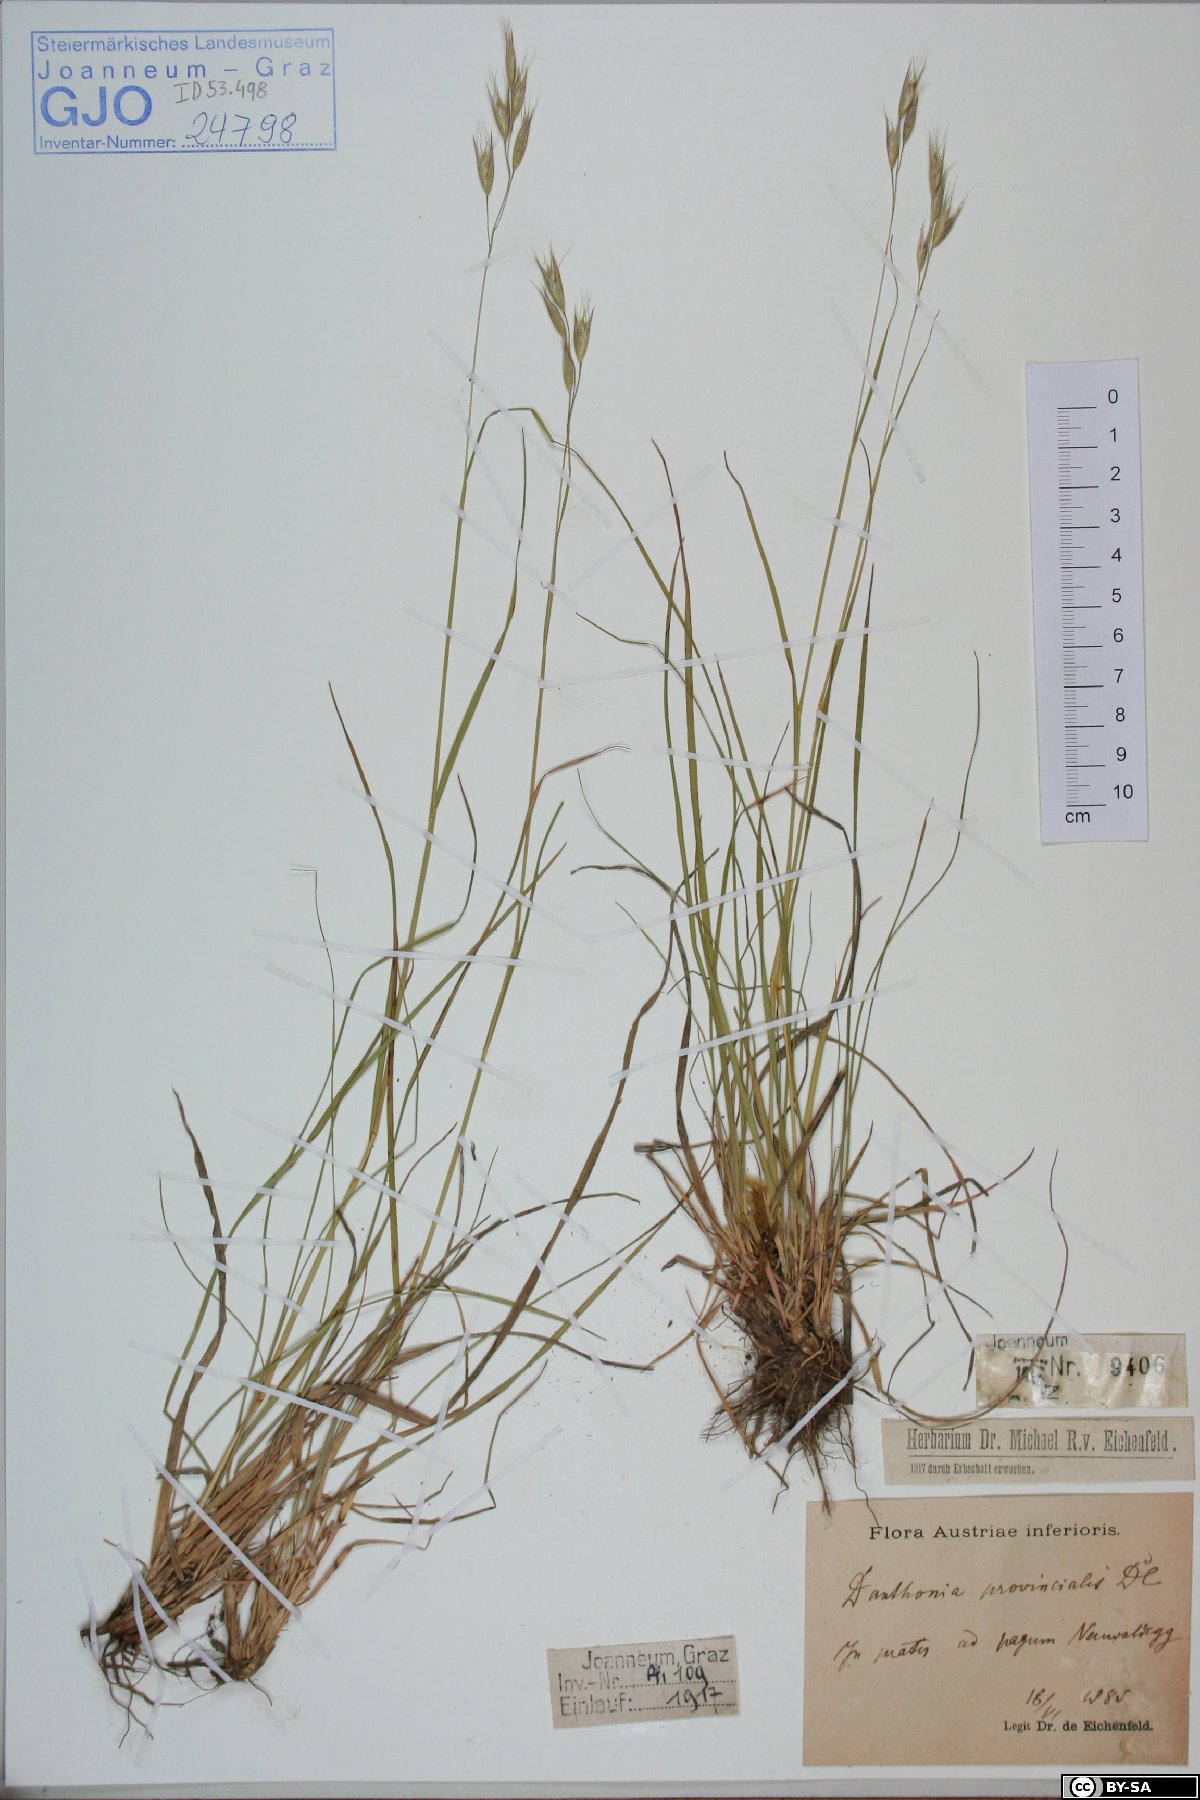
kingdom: Plantae
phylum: Tracheophyta
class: Liliopsida
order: Poales
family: Poaceae
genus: Danthonia
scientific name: Danthonia alpina
